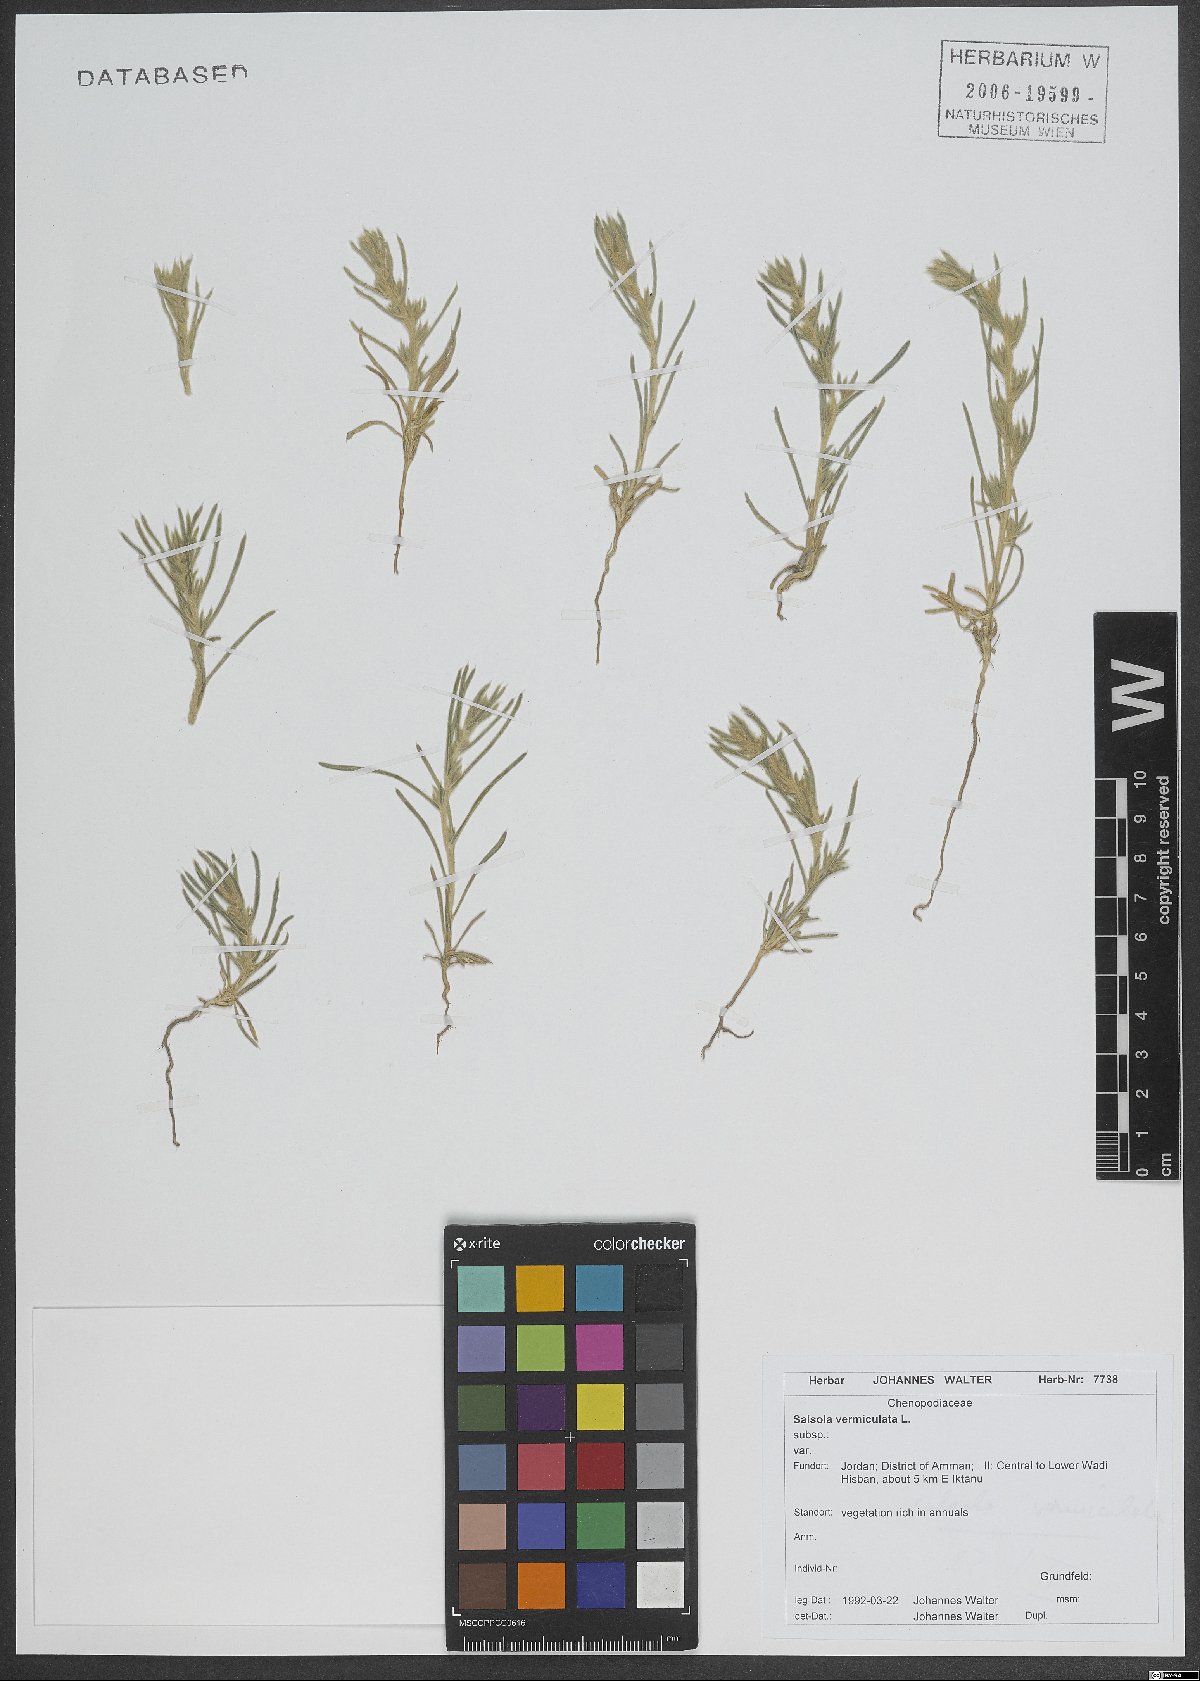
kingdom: Plantae
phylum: Tracheophyta
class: Magnoliopsida
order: Caryophyllales
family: Amaranthaceae
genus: Nitrosalsola
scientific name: Nitrosalsola vermiculata
